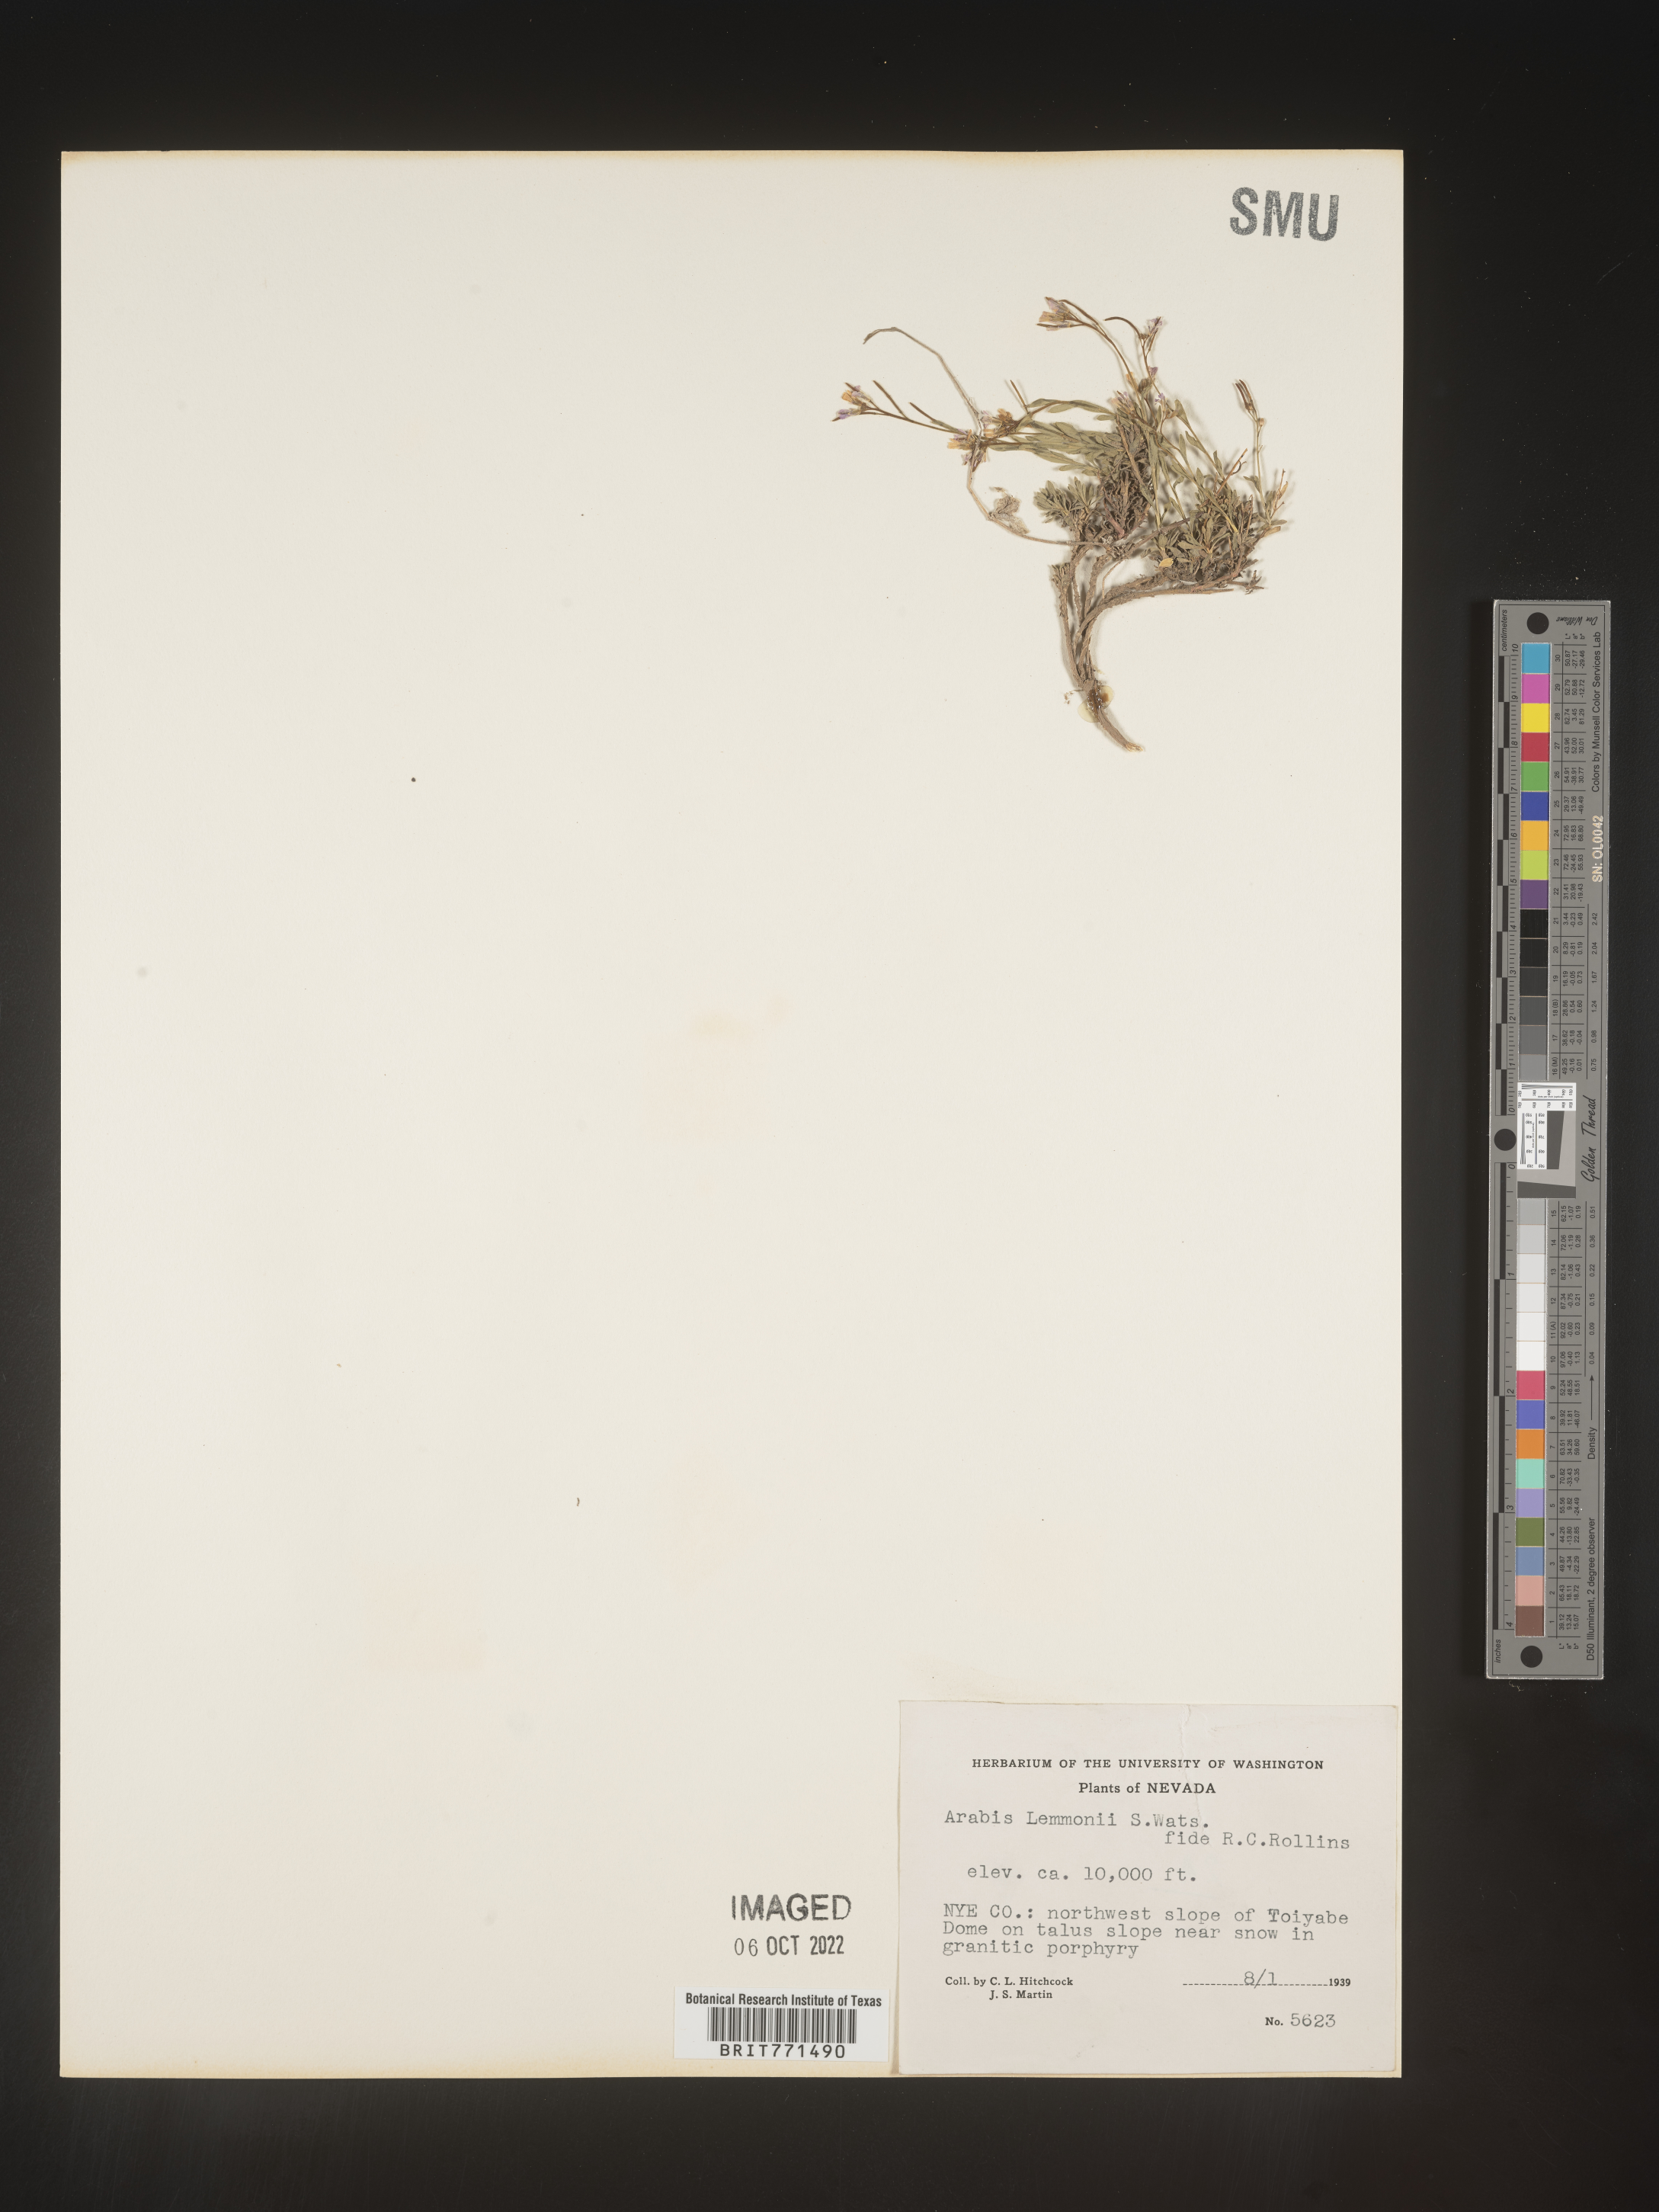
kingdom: Plantae
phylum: Tracheophyta
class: Magnoliopsida
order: Brassicales
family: Brassicaceae
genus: Arabis
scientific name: Arabis
